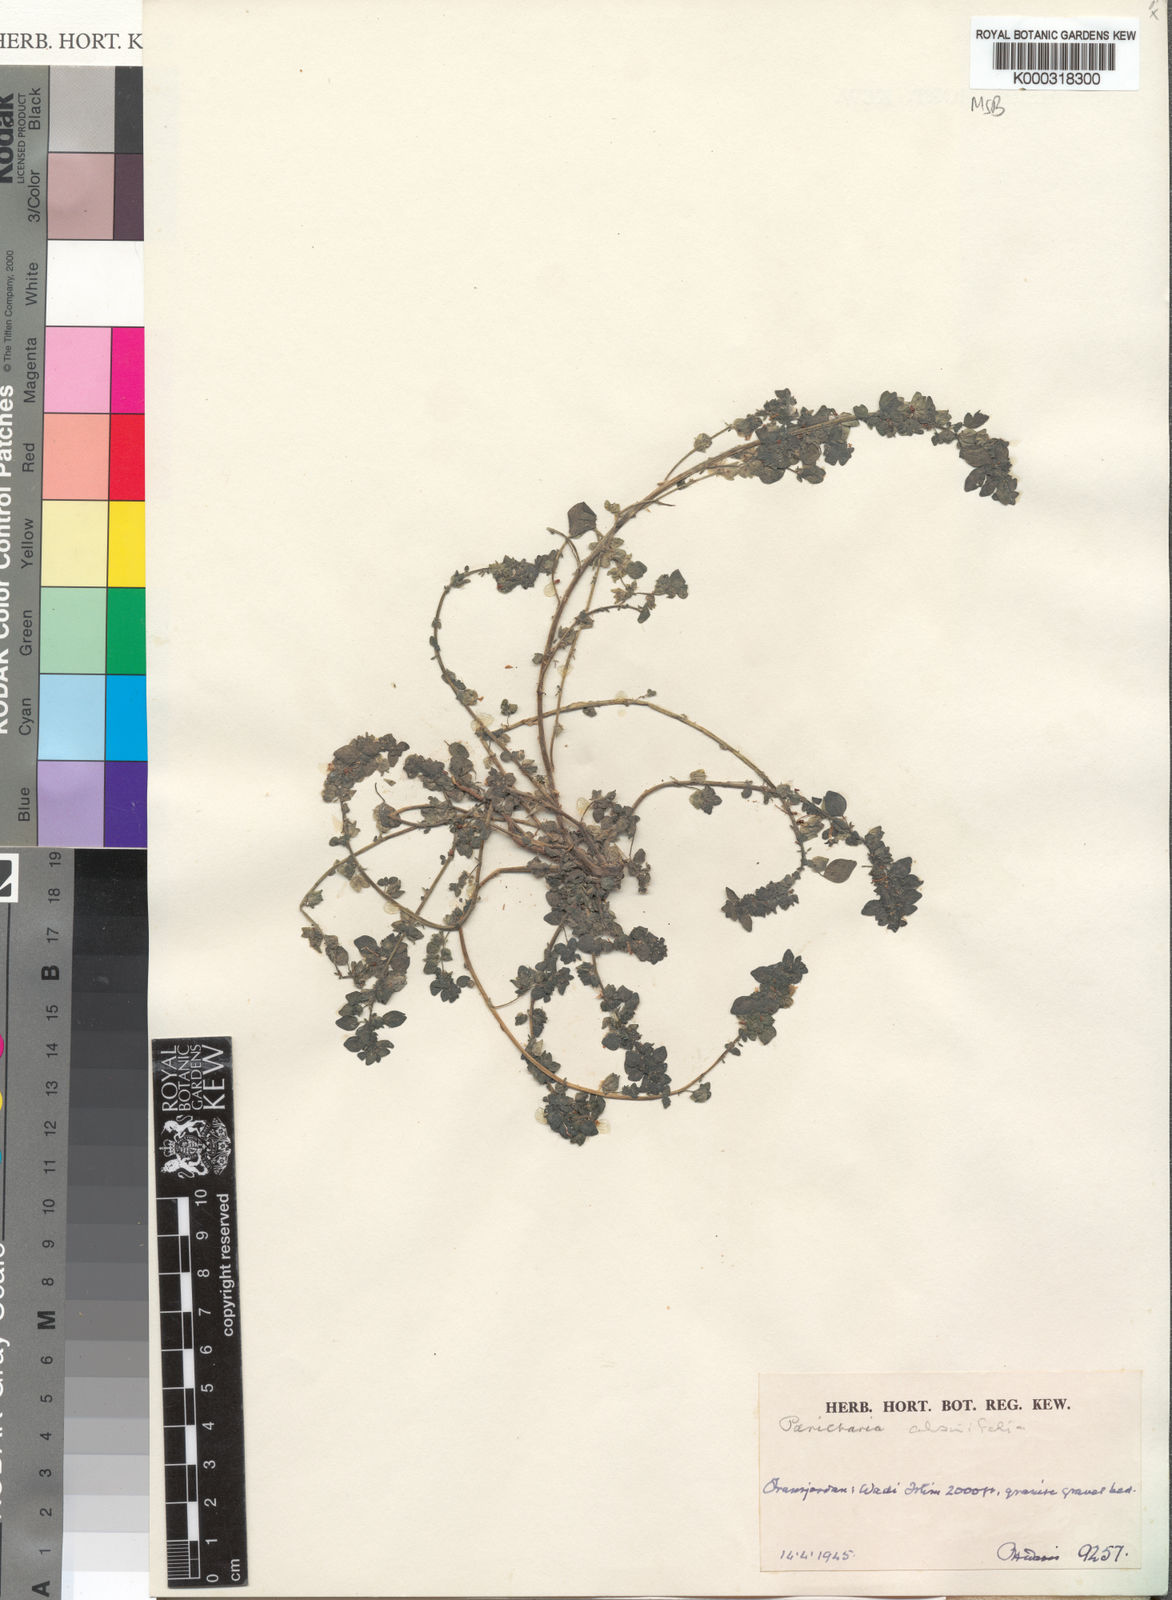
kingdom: Plantae
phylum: Tracheophyta
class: Magnoliopsida
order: Rosales
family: Urticaceae
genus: Parietaria
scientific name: Parietaria
